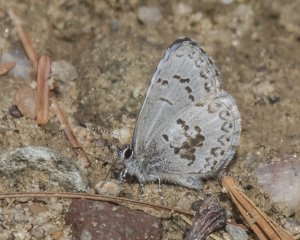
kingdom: Animalia
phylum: Arthropoda
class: Insecta
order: Lepidoptera
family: Lycaenidae
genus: Celastrina
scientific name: Celastrina lucia
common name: Northern Spring Azure
